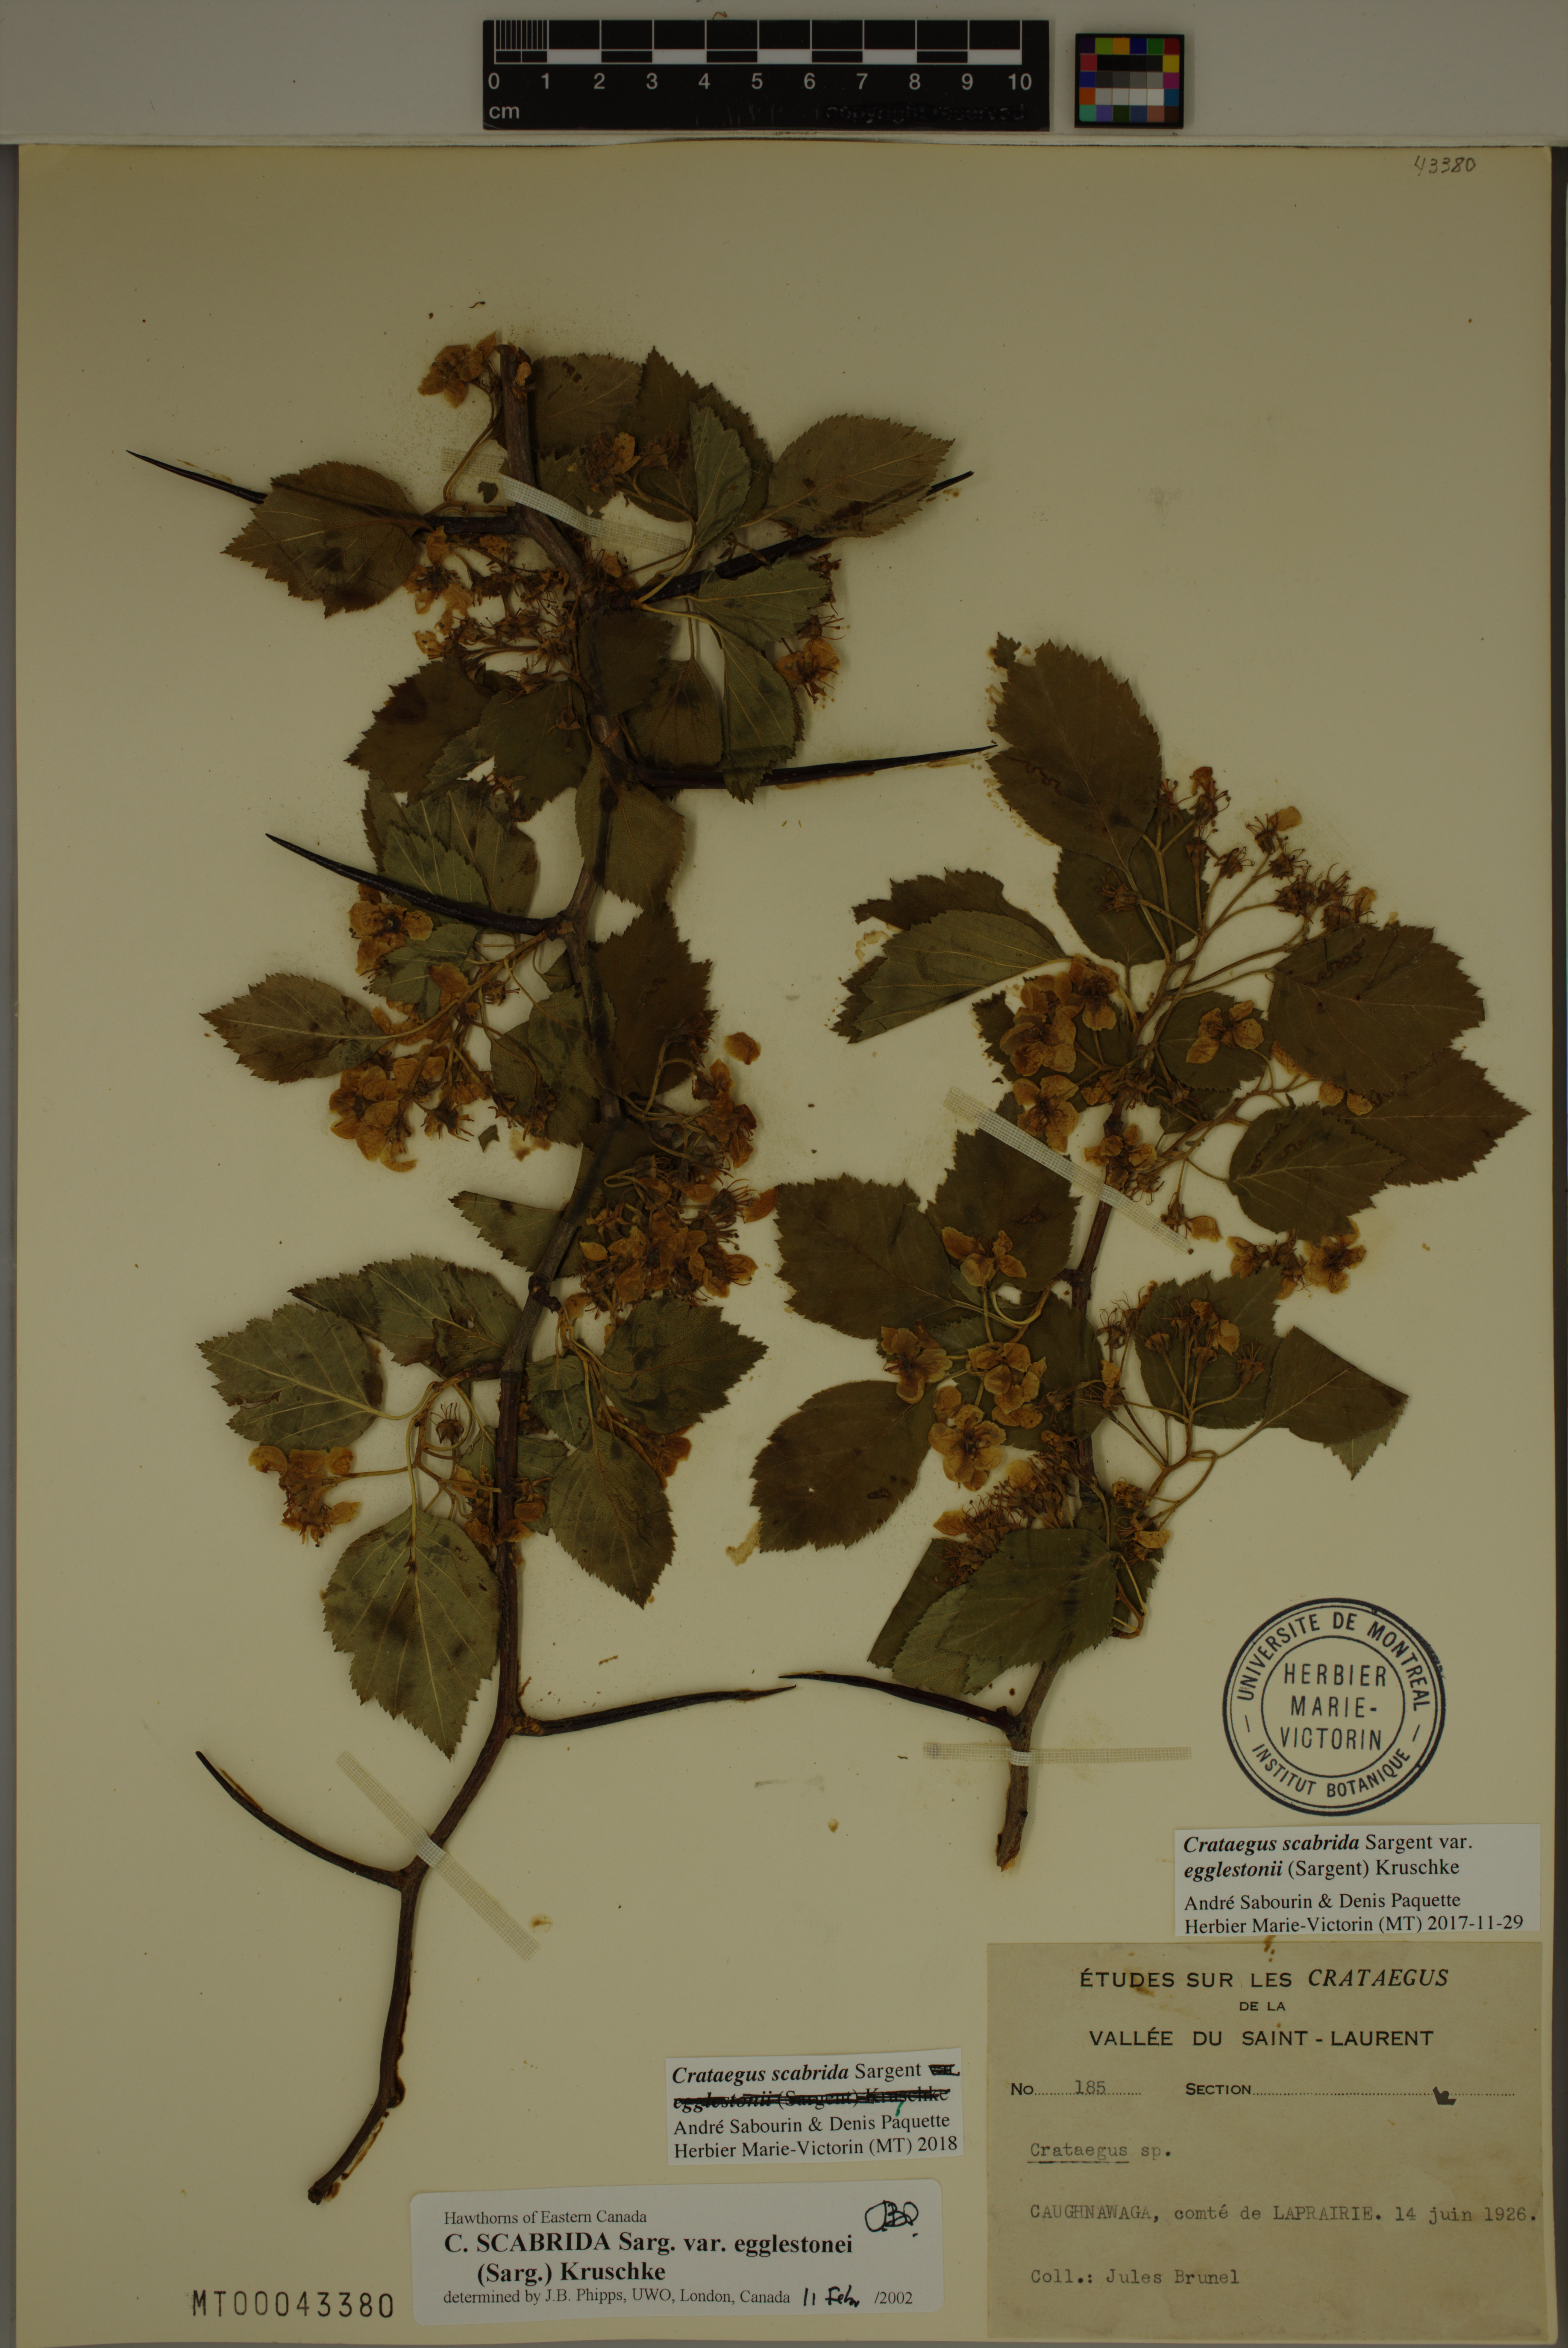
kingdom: Plantae
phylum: Tracheophyta
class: Magnoliopsida
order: Rosales
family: Rosaceae
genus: Crataegus
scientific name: Crataegus scabrida
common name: Rough hawthorn
